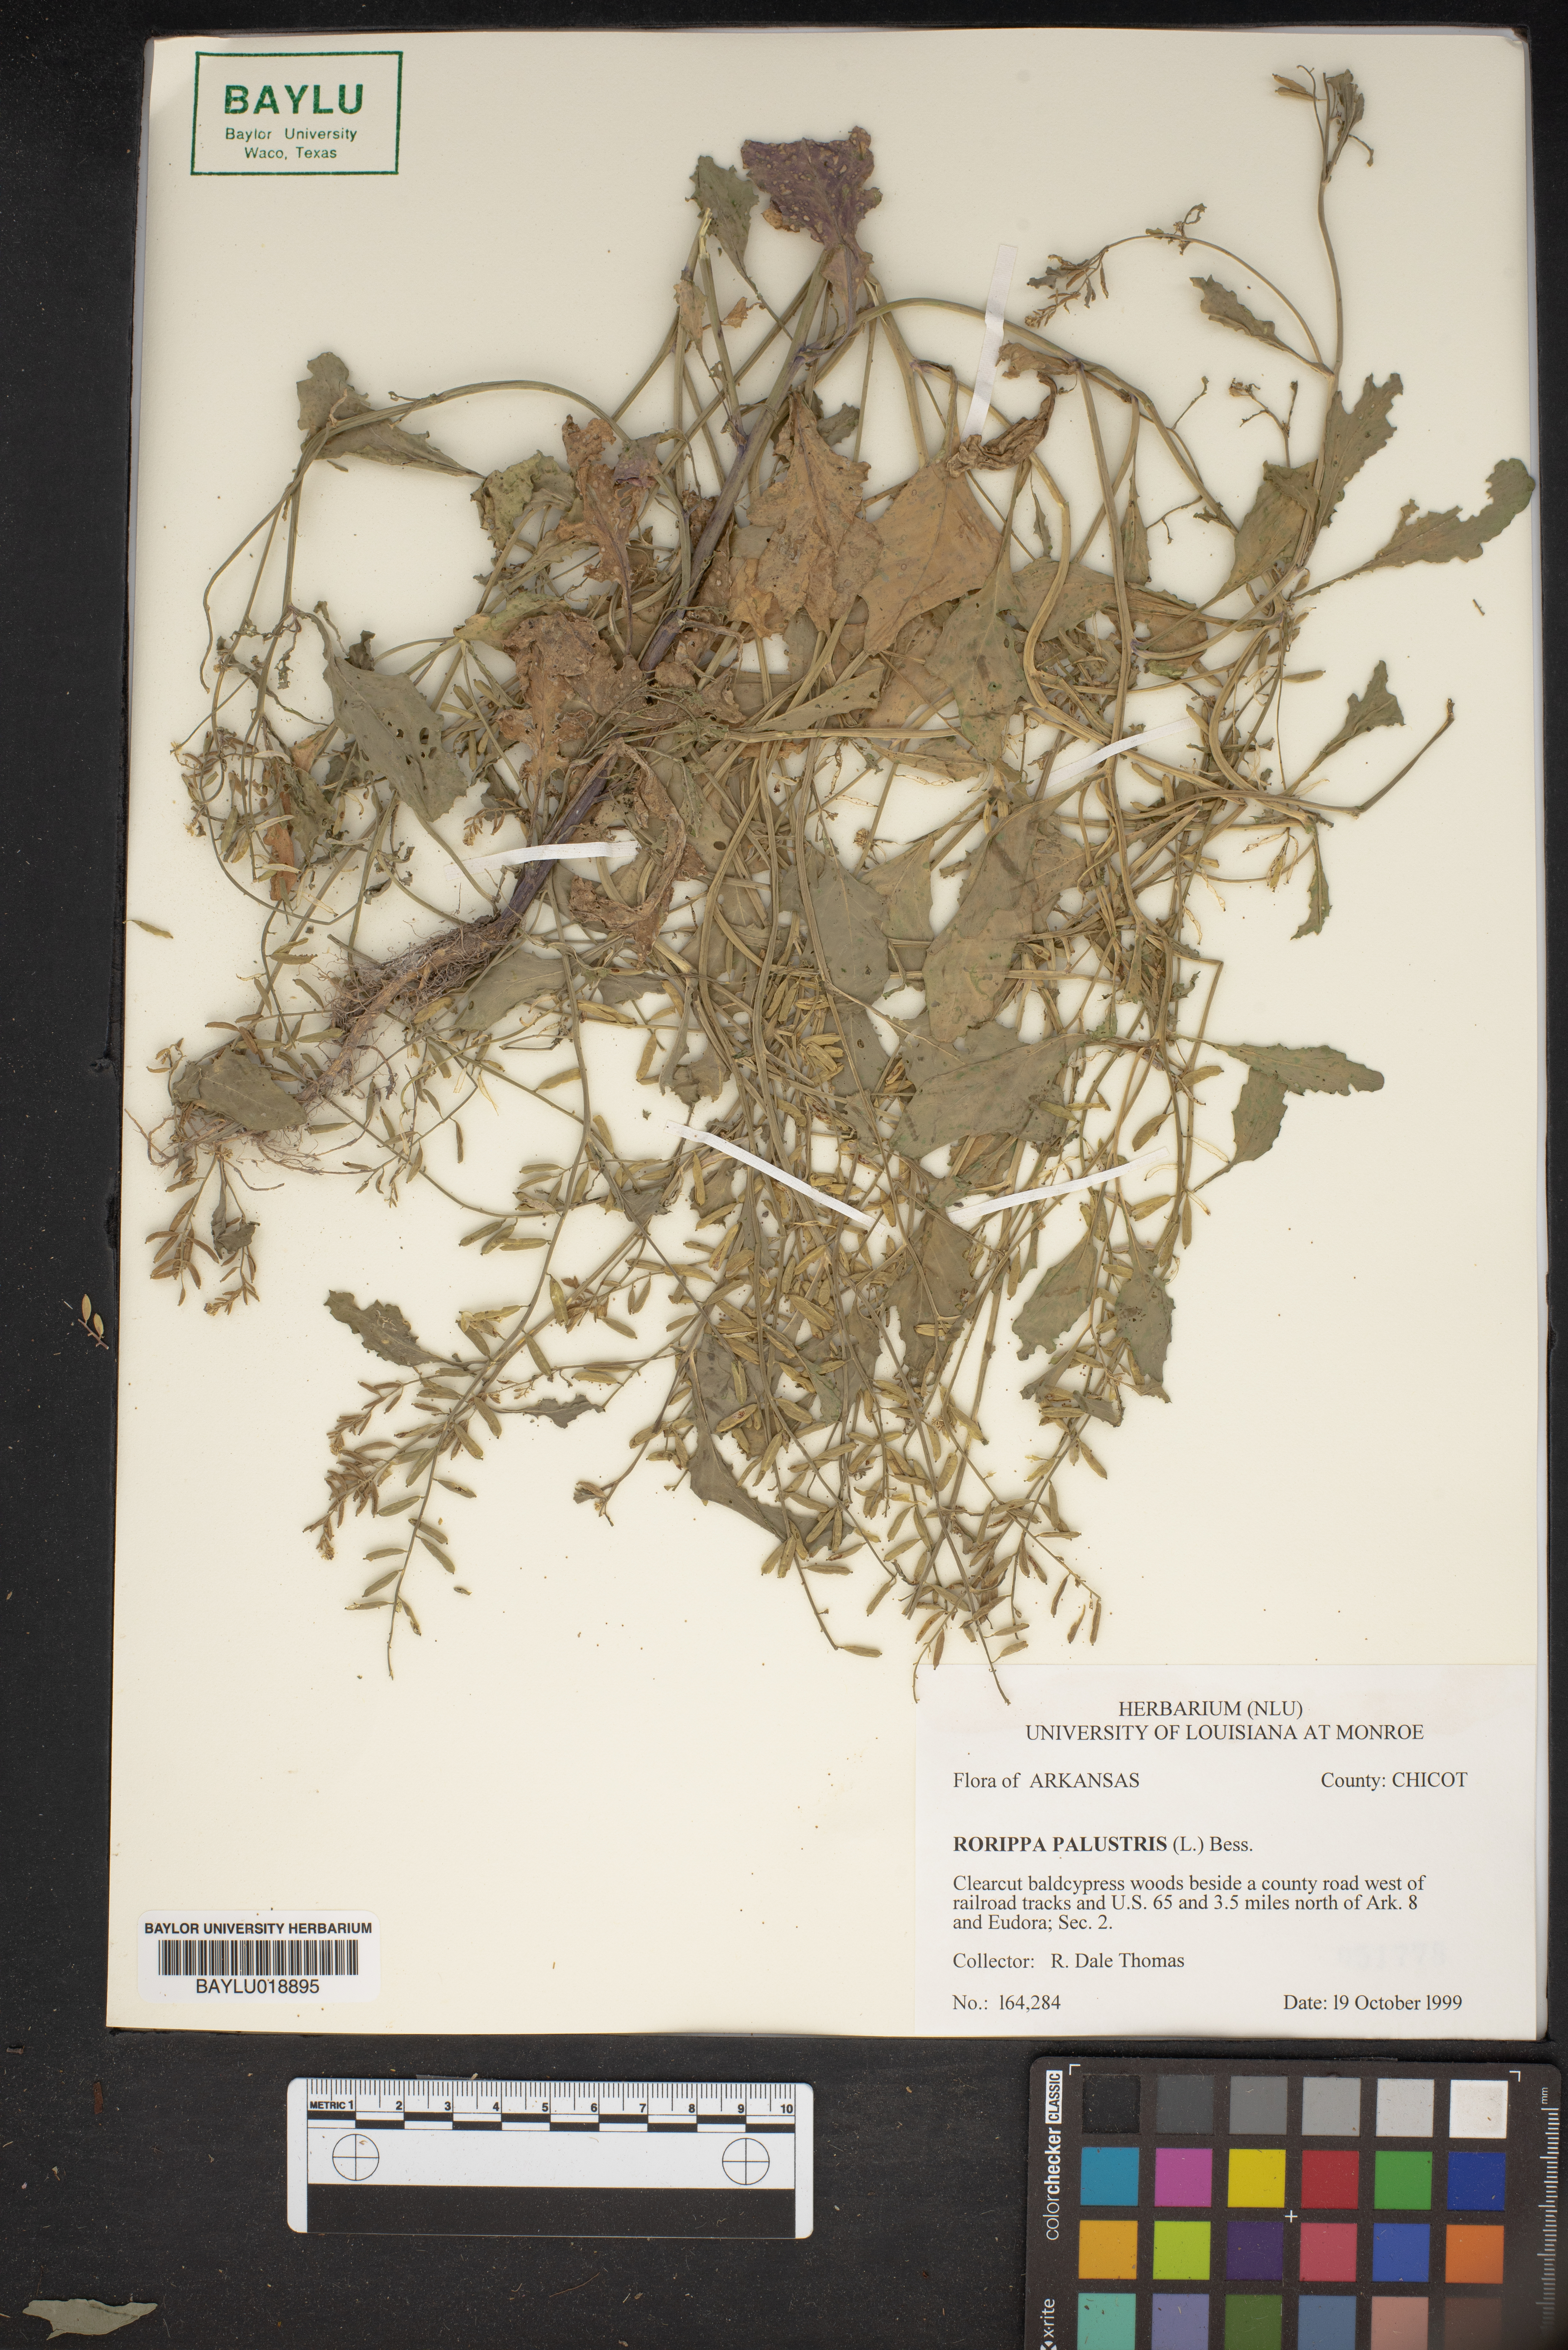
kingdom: Plantae
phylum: Tracheophyta
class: Magnoliopsida
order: Brassicales
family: Brassicaceae
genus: Rorippa
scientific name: Rorippa palustris
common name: Marsh yellow-cress
